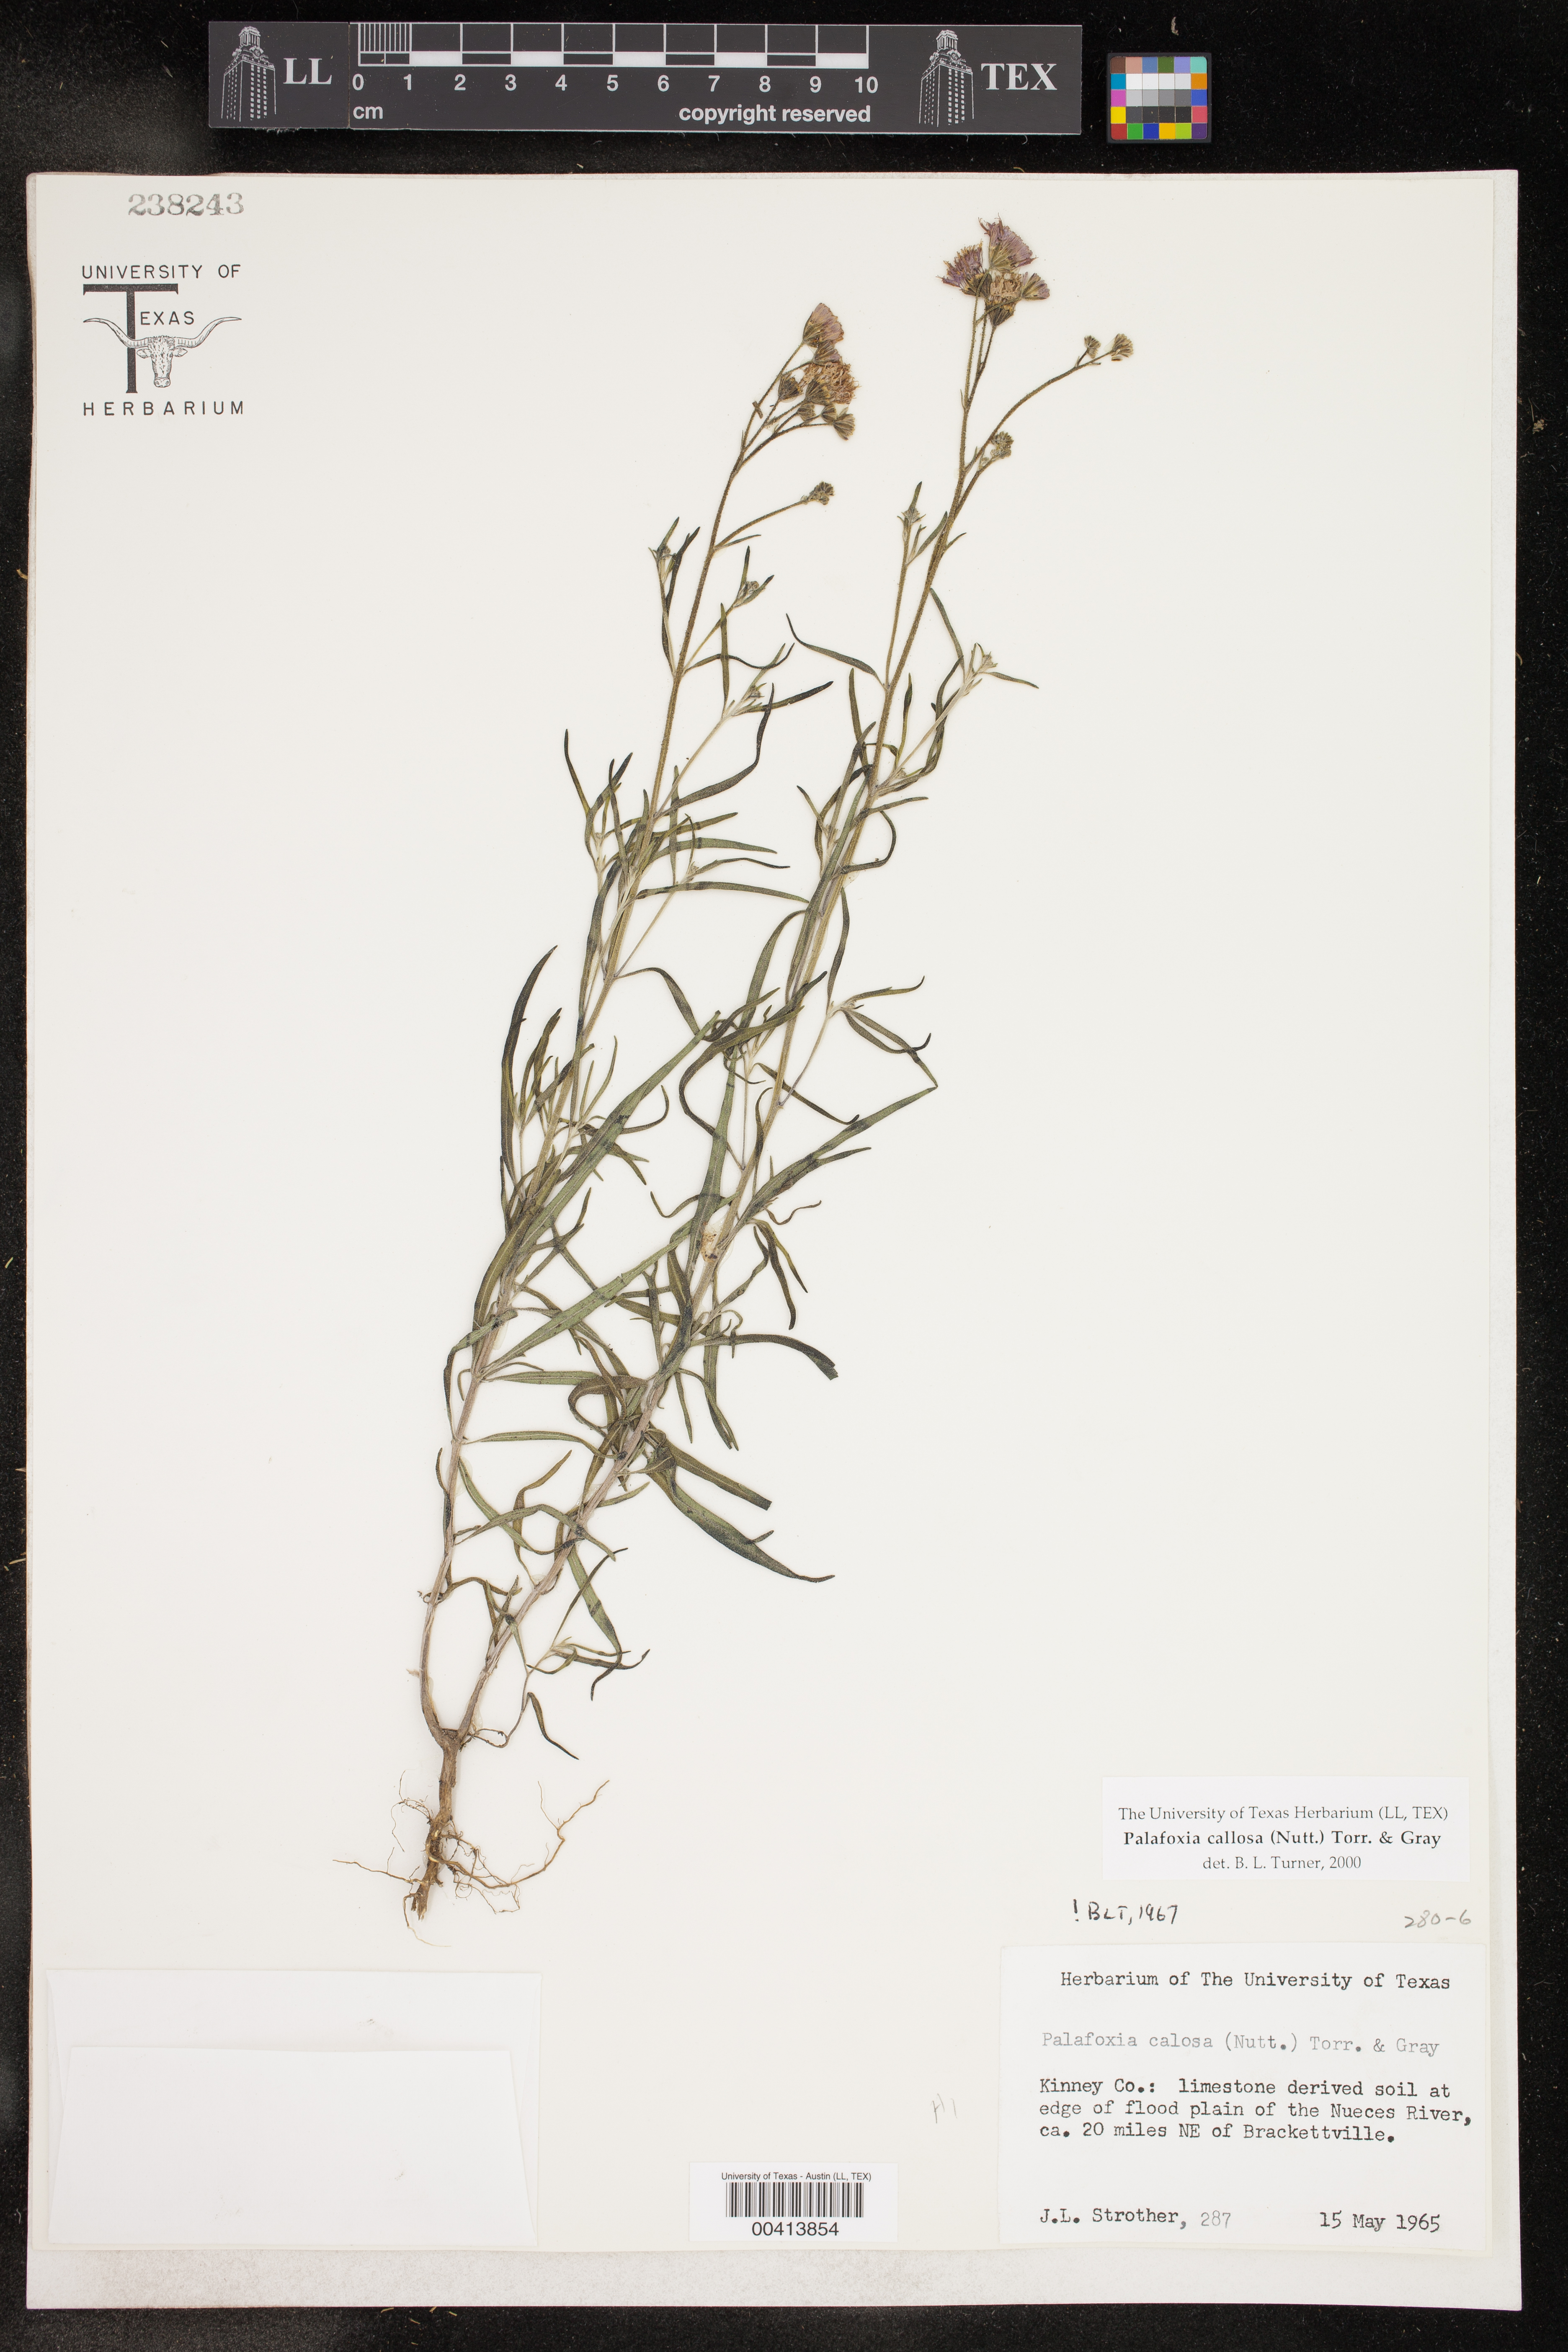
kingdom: Plantae
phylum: Tracheophyta
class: Magnoliopsida
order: Asterales
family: Asteraceae
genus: Palafoxia
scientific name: Palafoxia callosa
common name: Small palafox
